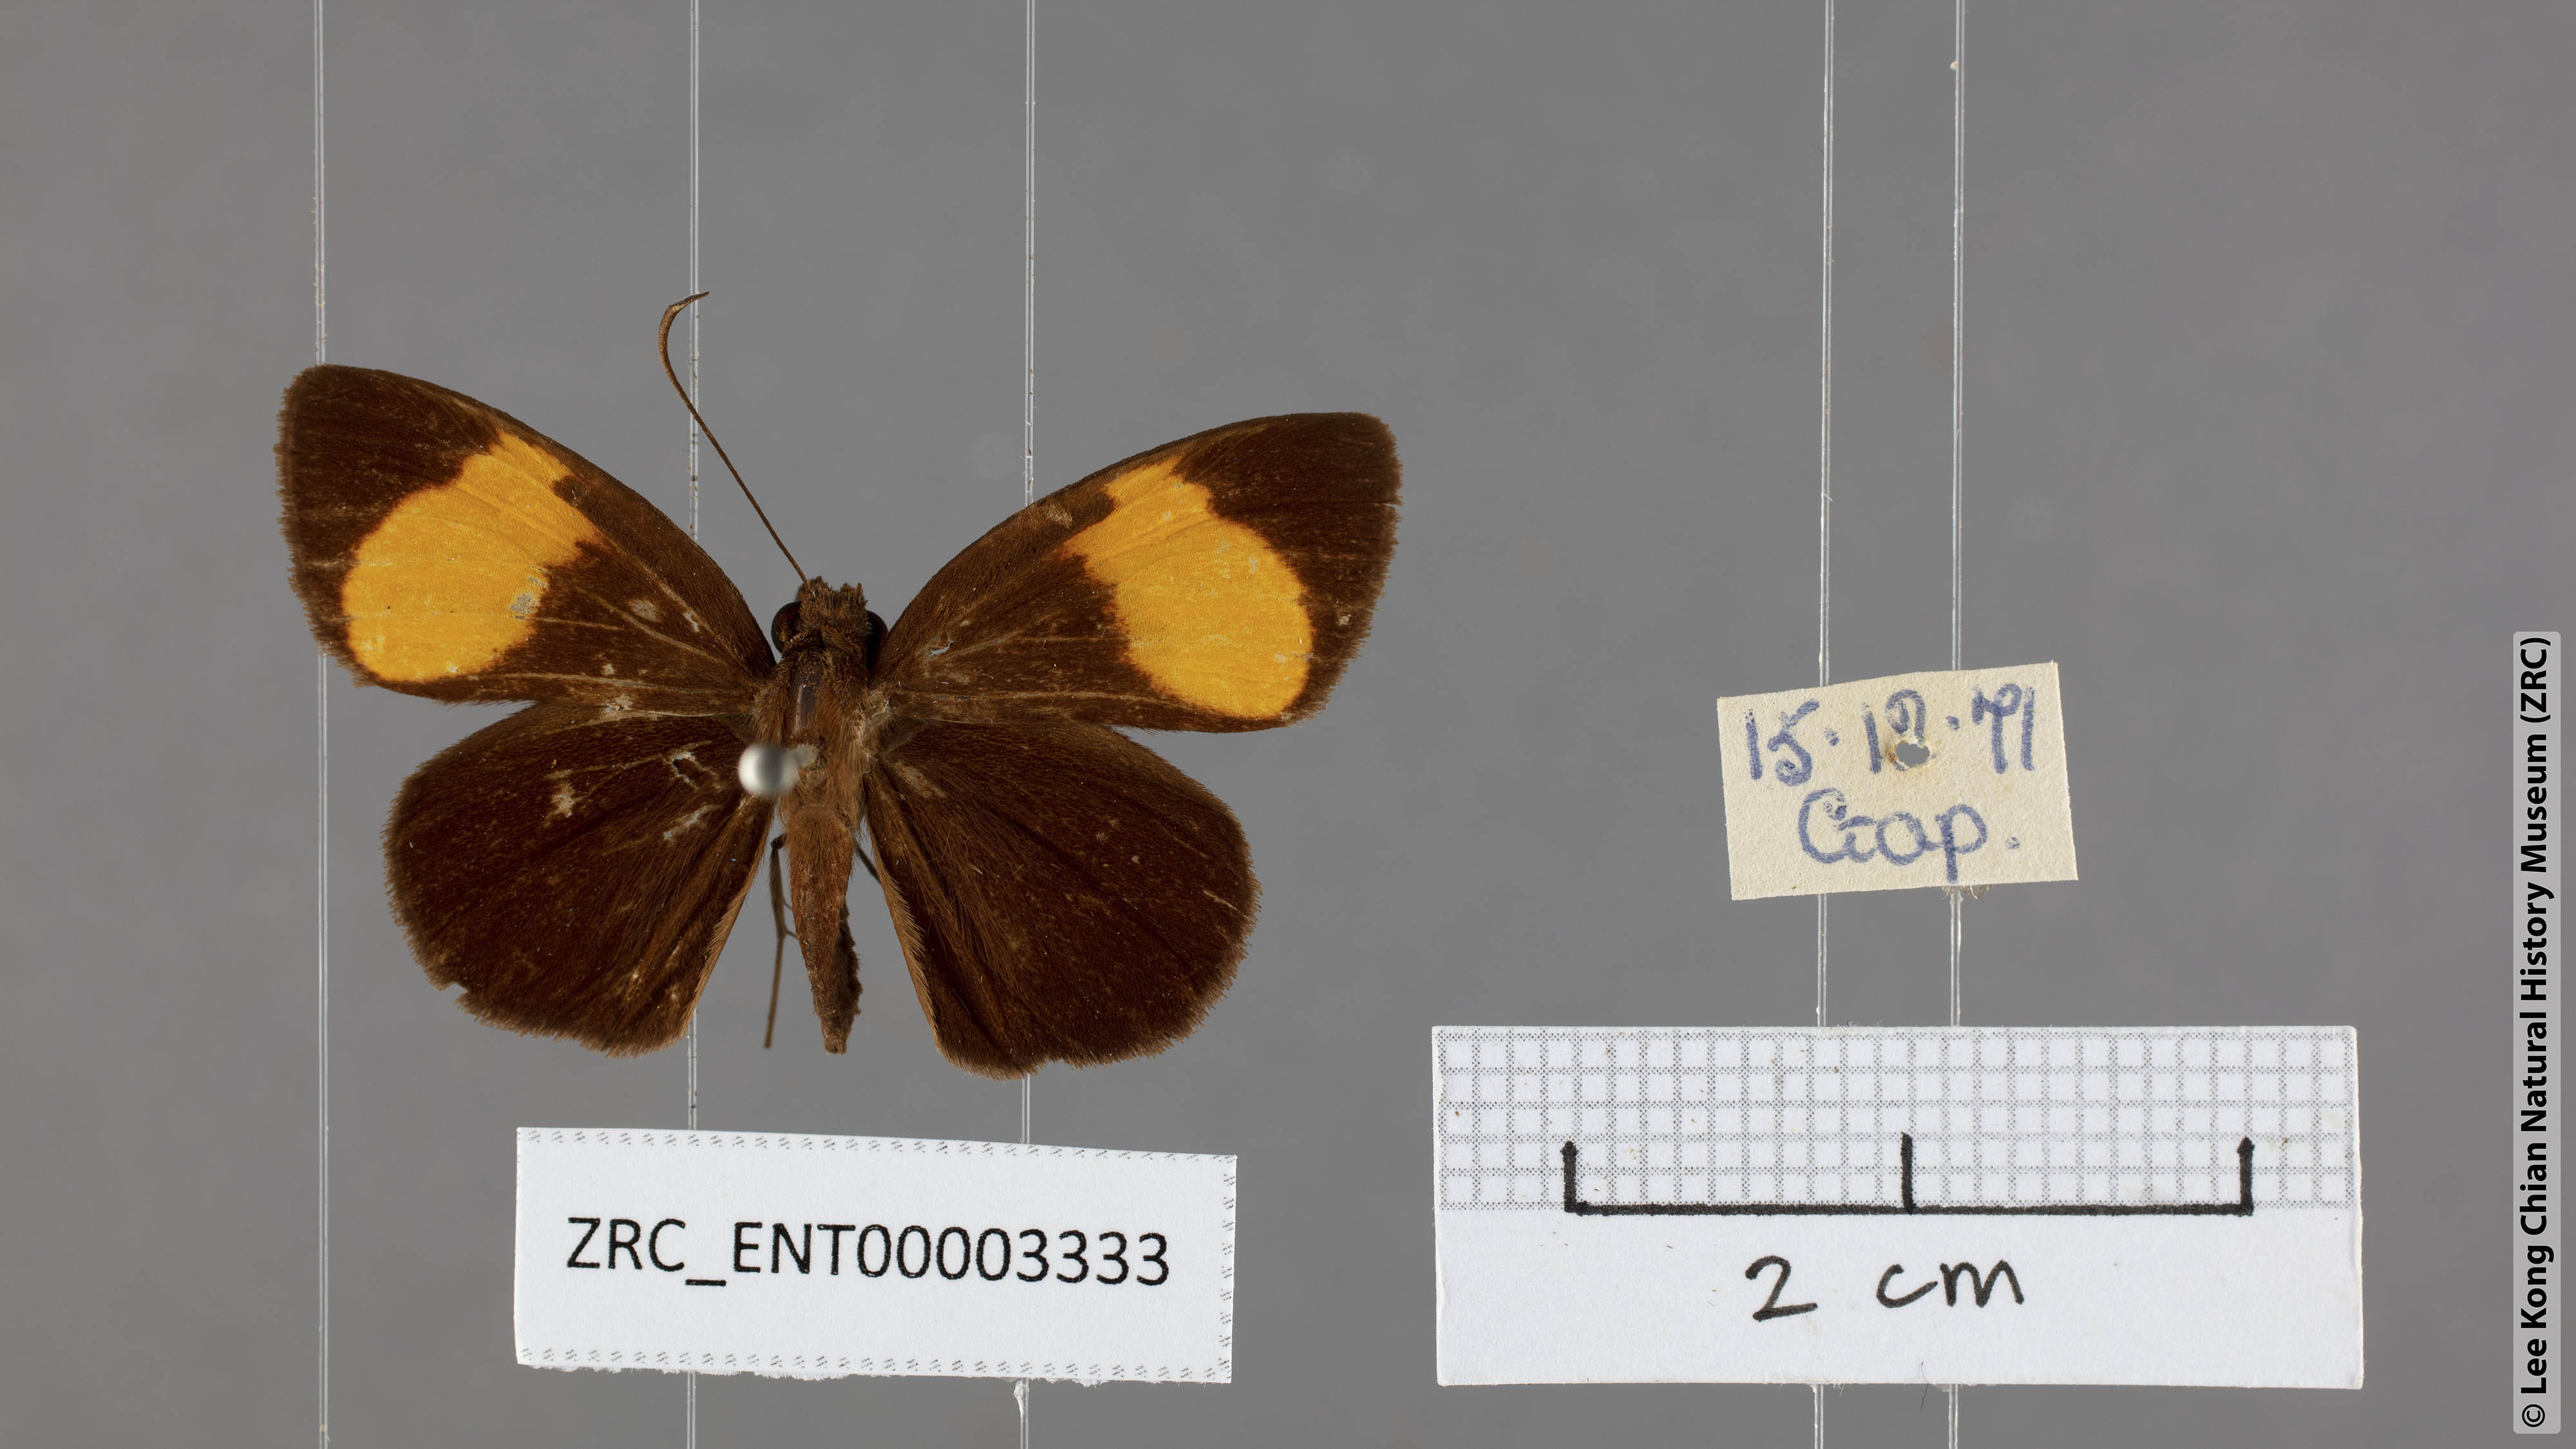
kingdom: Animalia
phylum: Arthropoda
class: Insecta
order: Lepidoptera
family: Hesperiidae
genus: Koruthaialos
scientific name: Koruthaialos sindu
